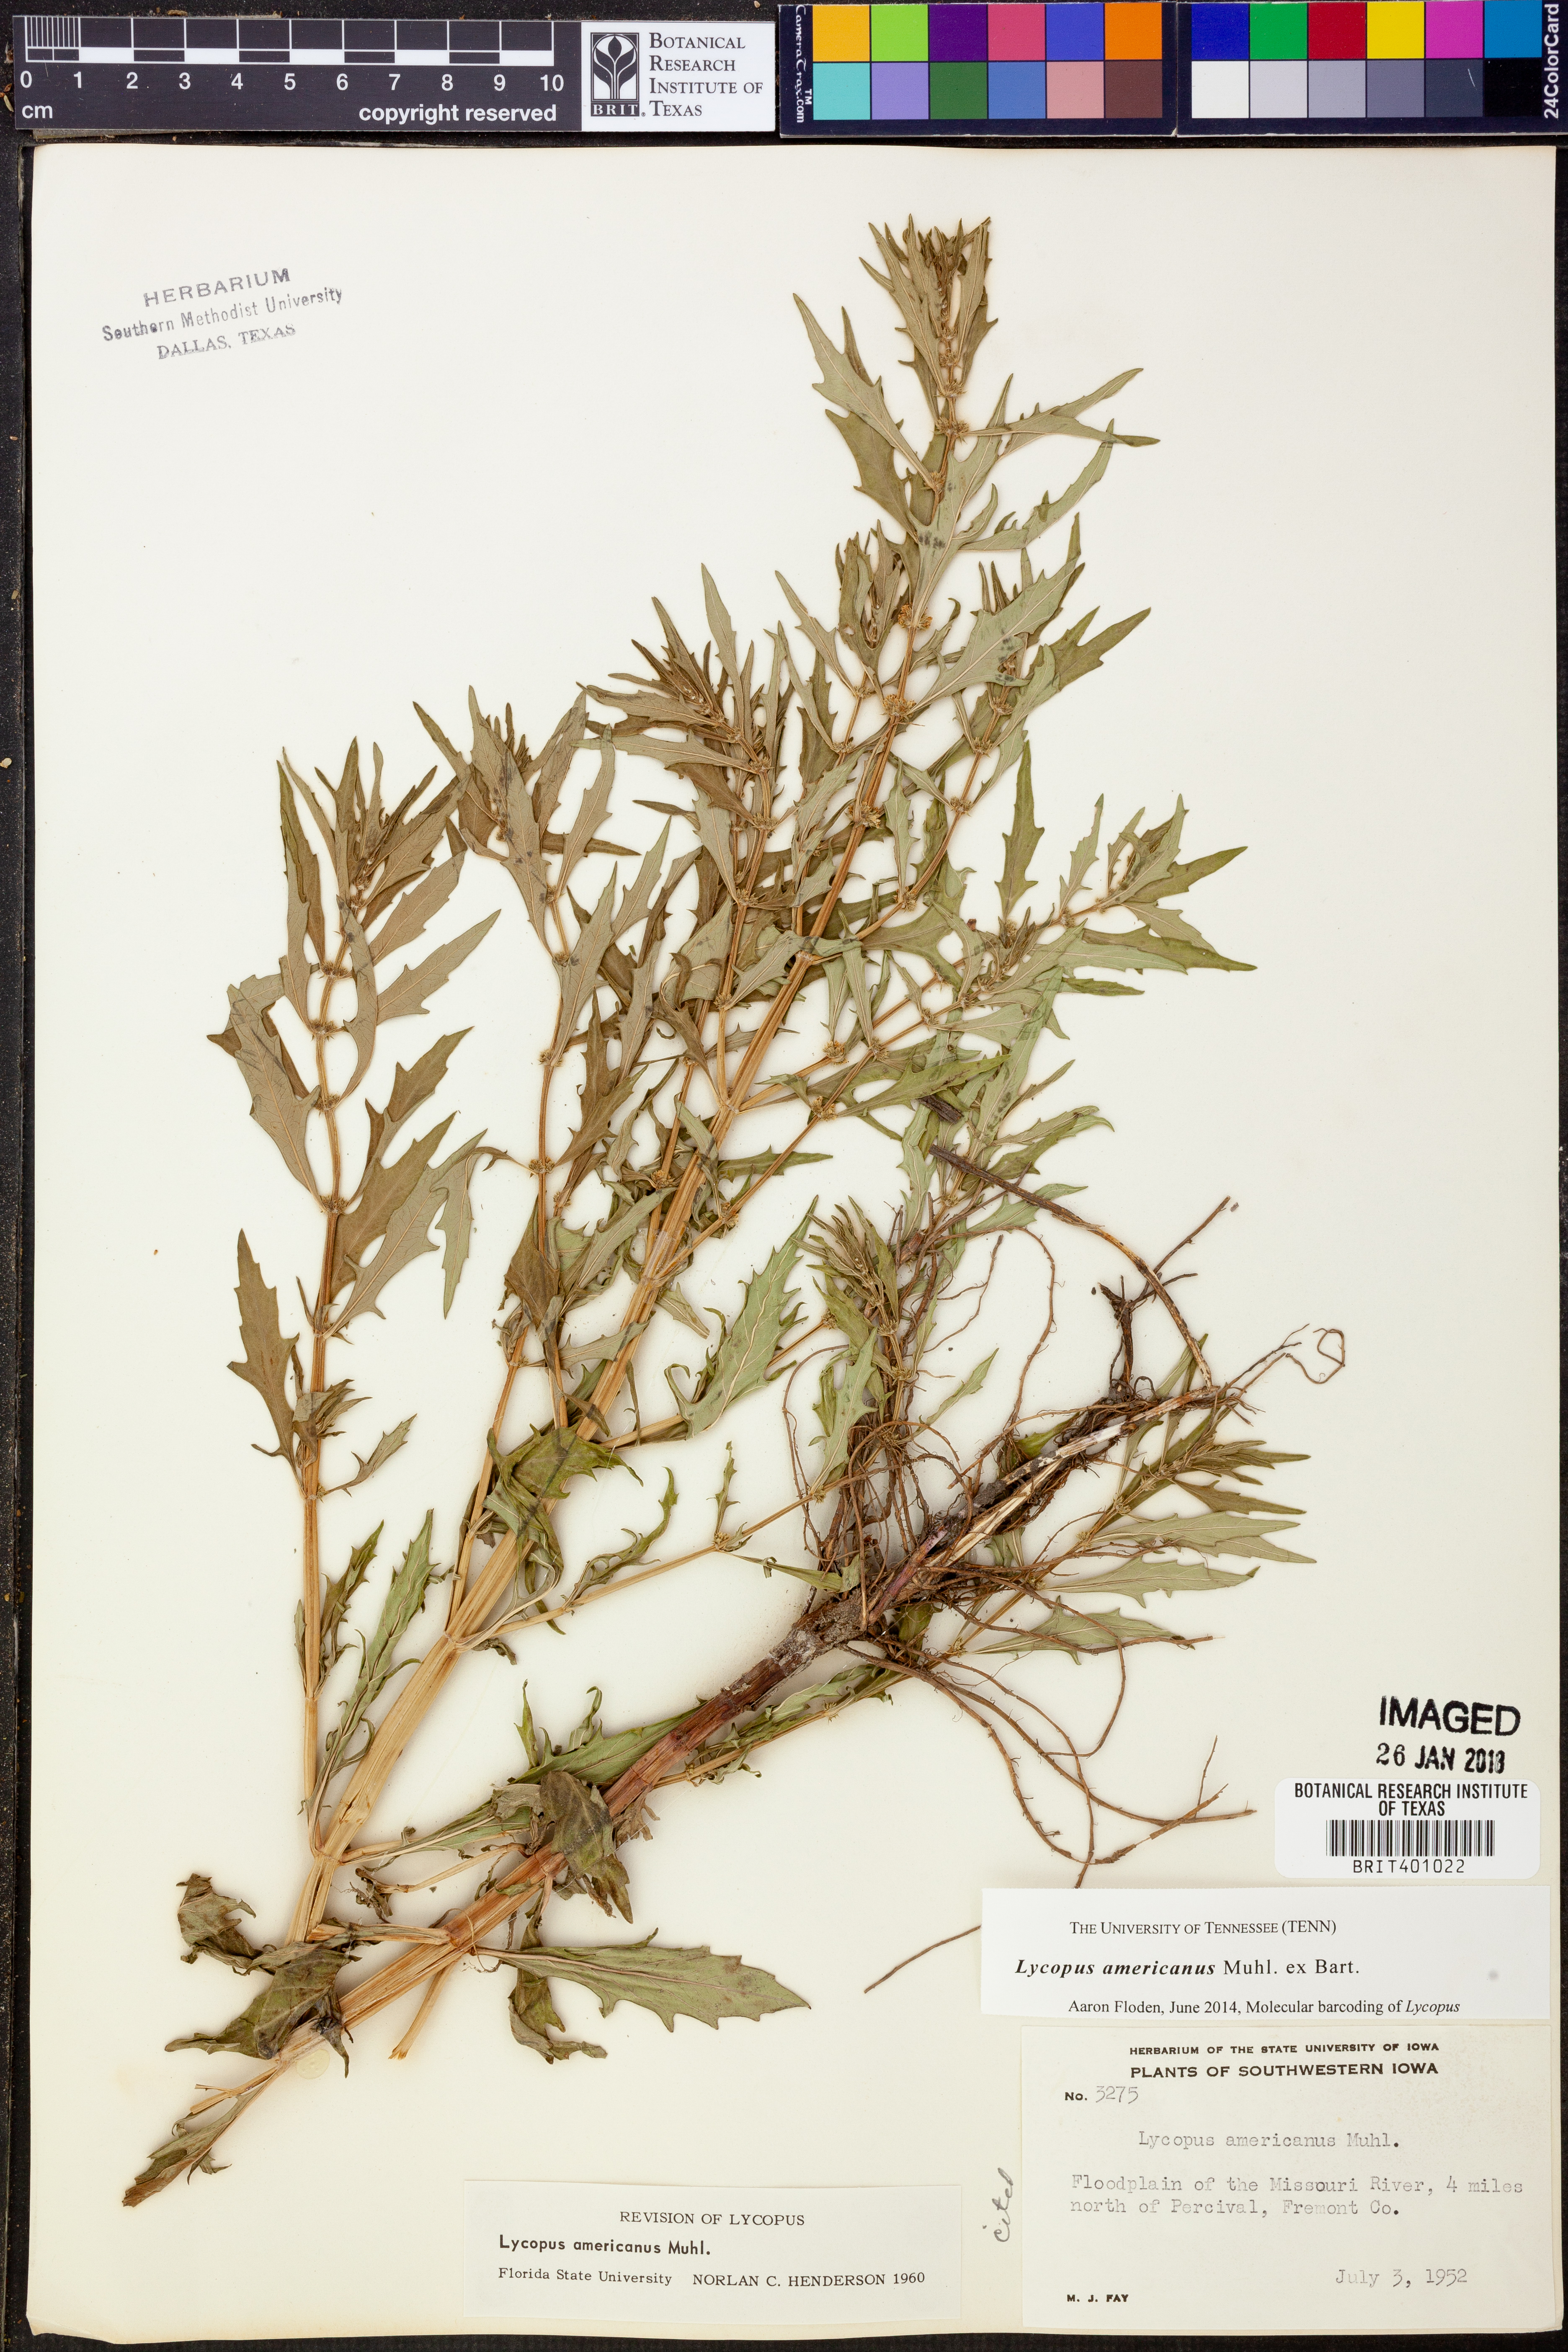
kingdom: Plantae
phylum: Tracheophyta
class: Magnoliopsida
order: Lamiales
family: Lamiaceae
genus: Lycopus
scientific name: Lycopus americanus
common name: American bugleweed
